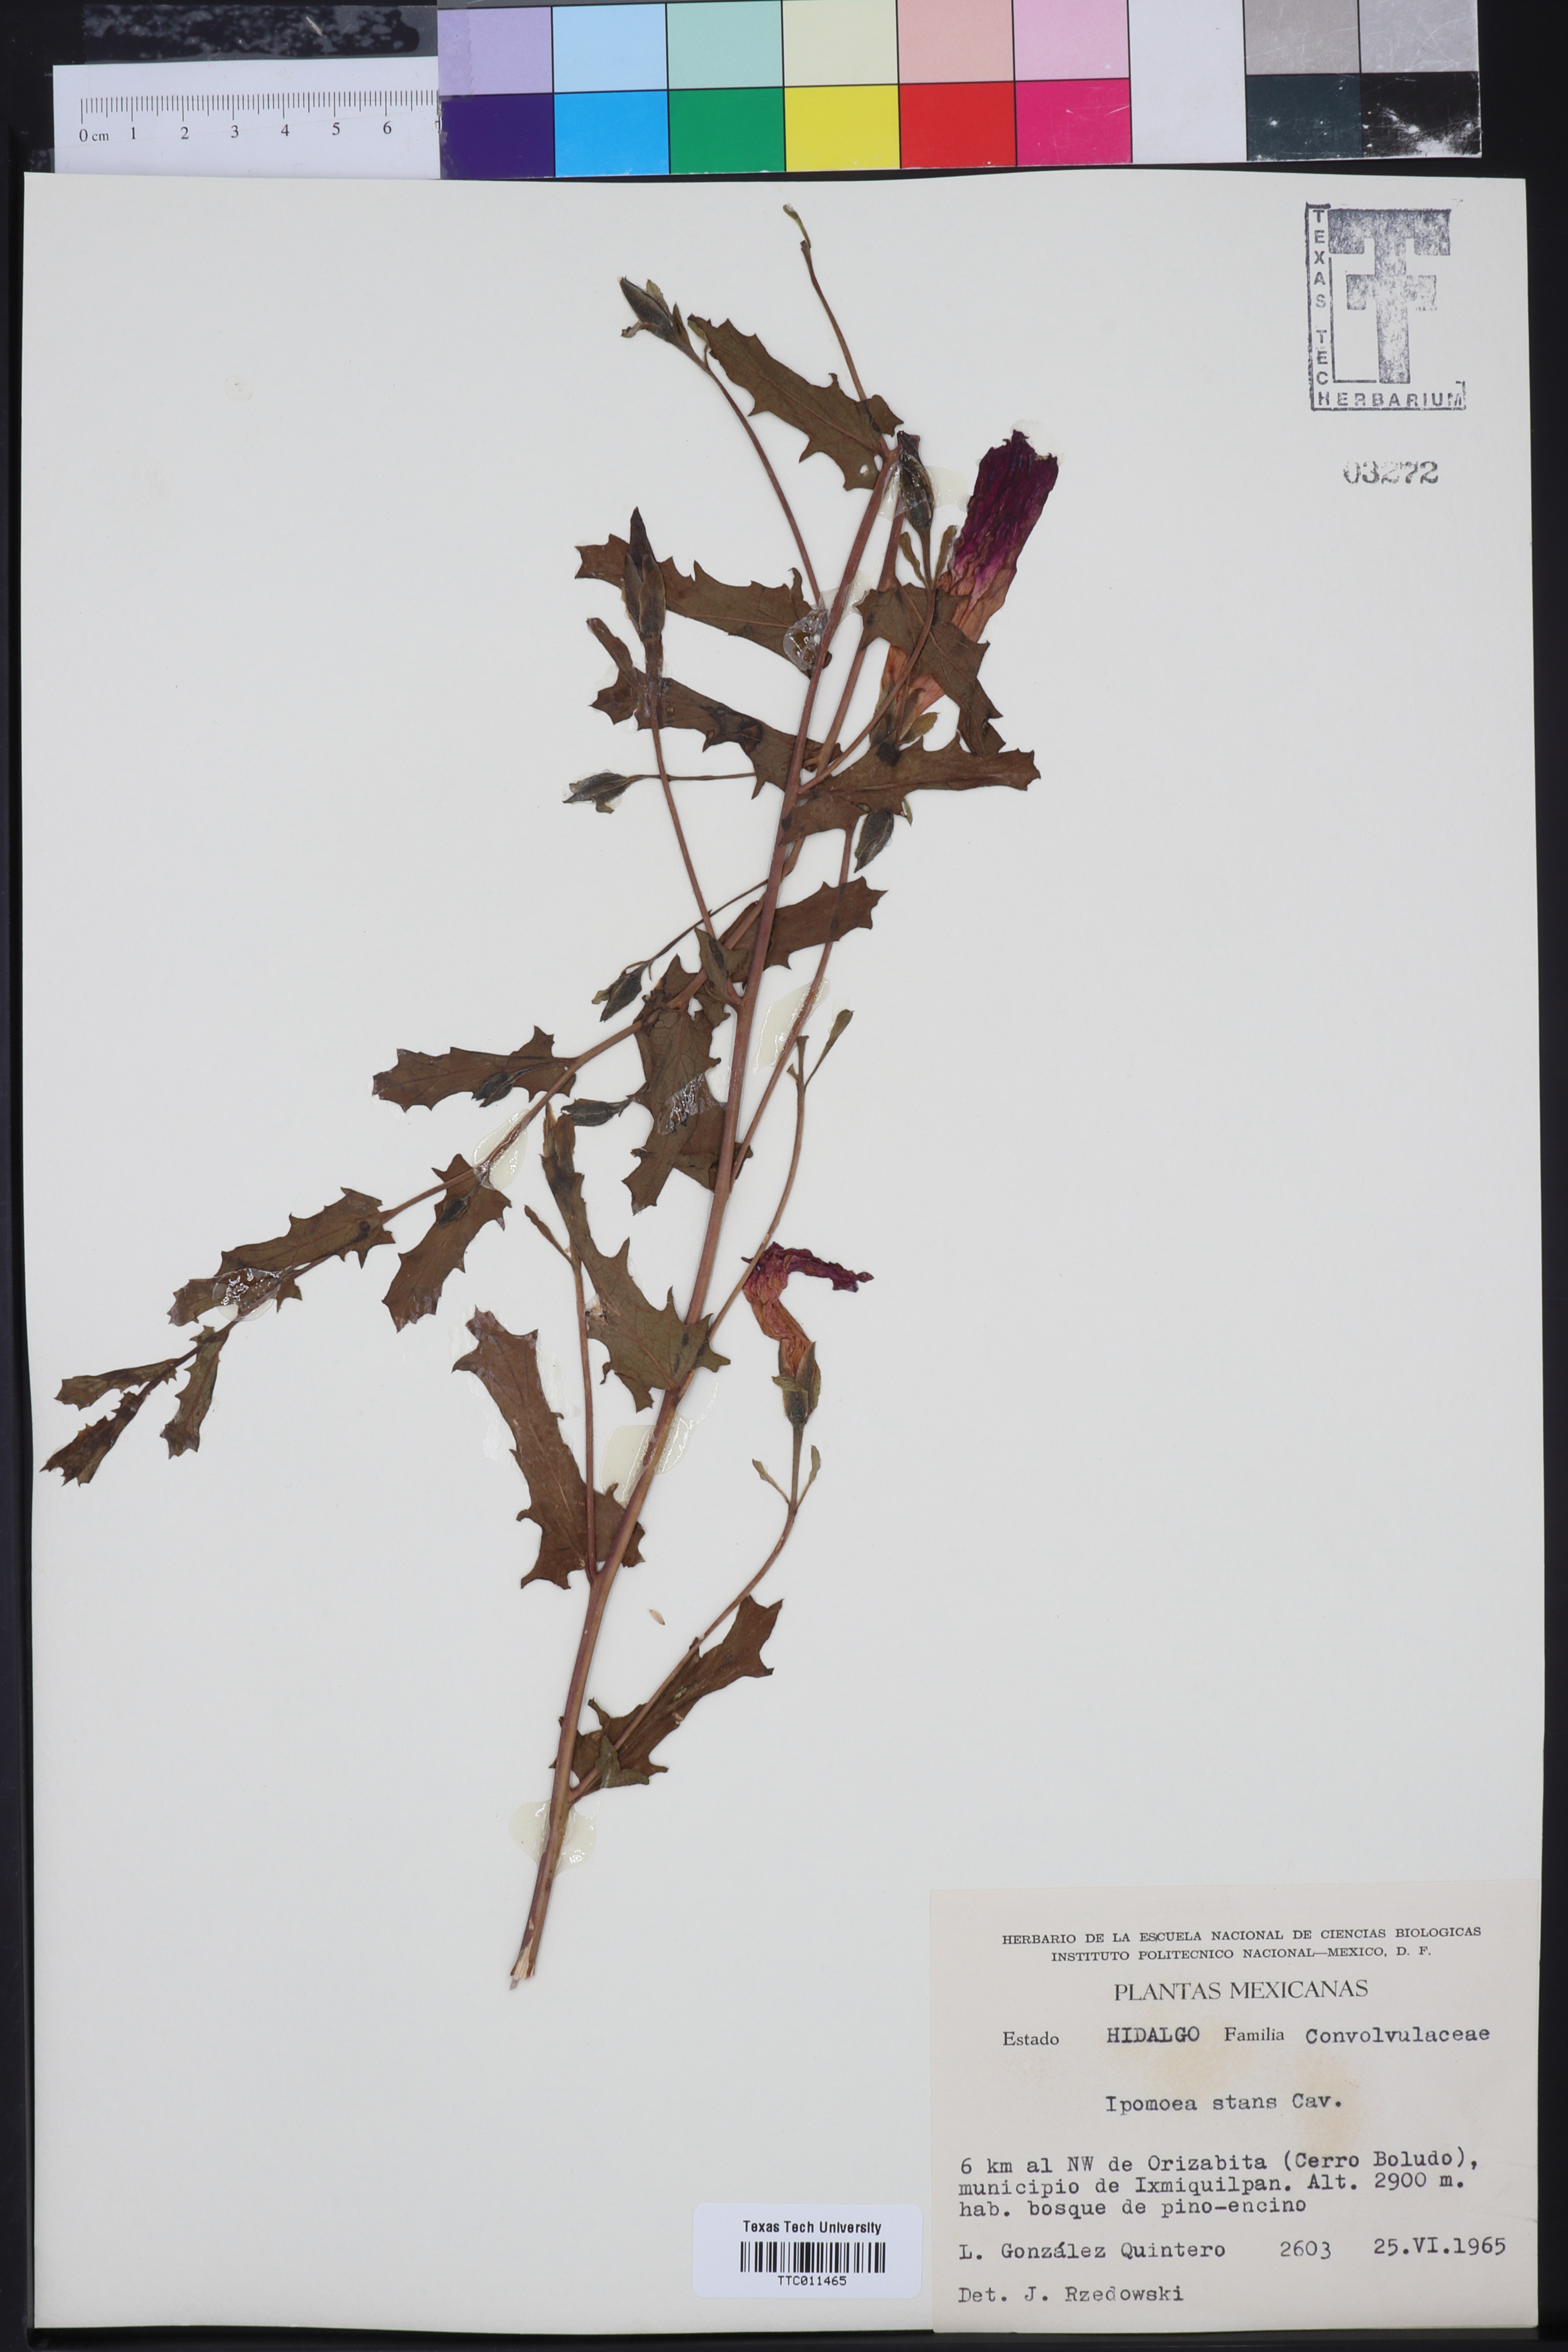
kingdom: Plantae
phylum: Tracheophyta
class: Magnoliopsida
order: Solanales
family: Convolvulaceae
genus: Ipomoea
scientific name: Ipomoea stans
